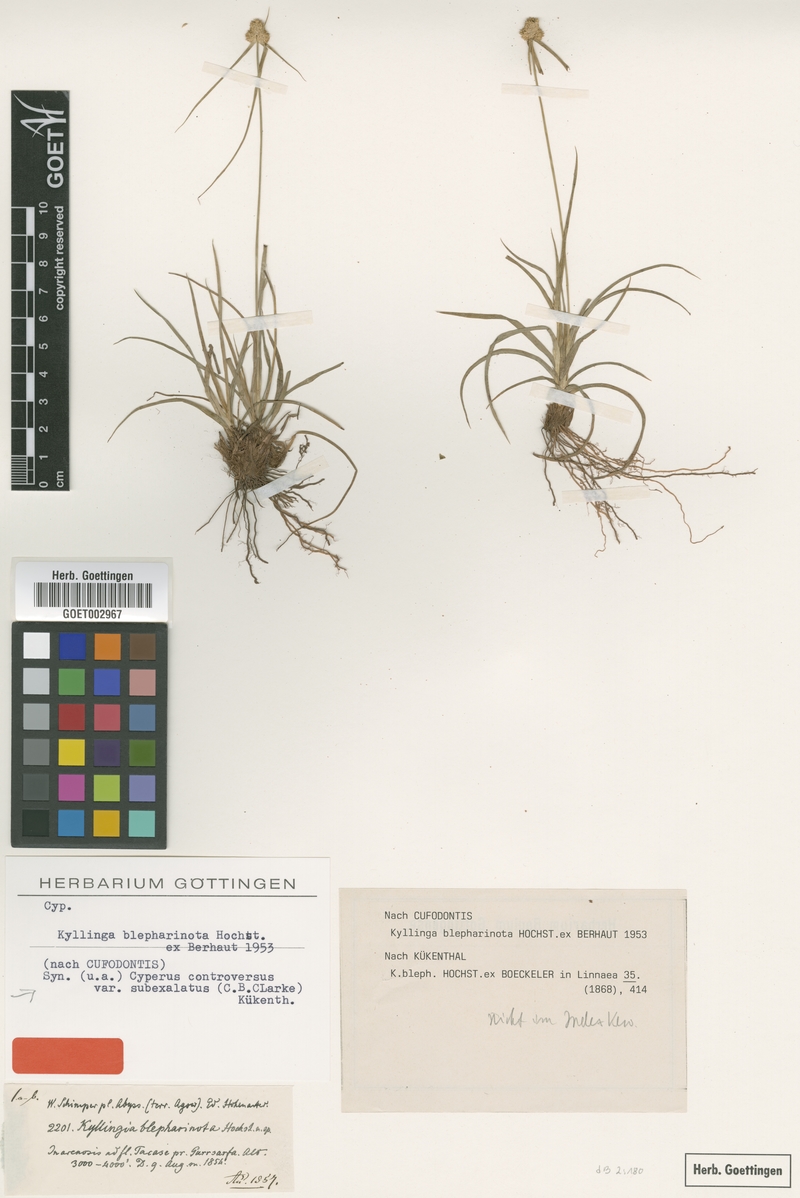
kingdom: Plantae
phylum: Tracheophyta
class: Liliopsida
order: Poales
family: Cyperaceae
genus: Cyperus
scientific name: Cyperus hortensis
